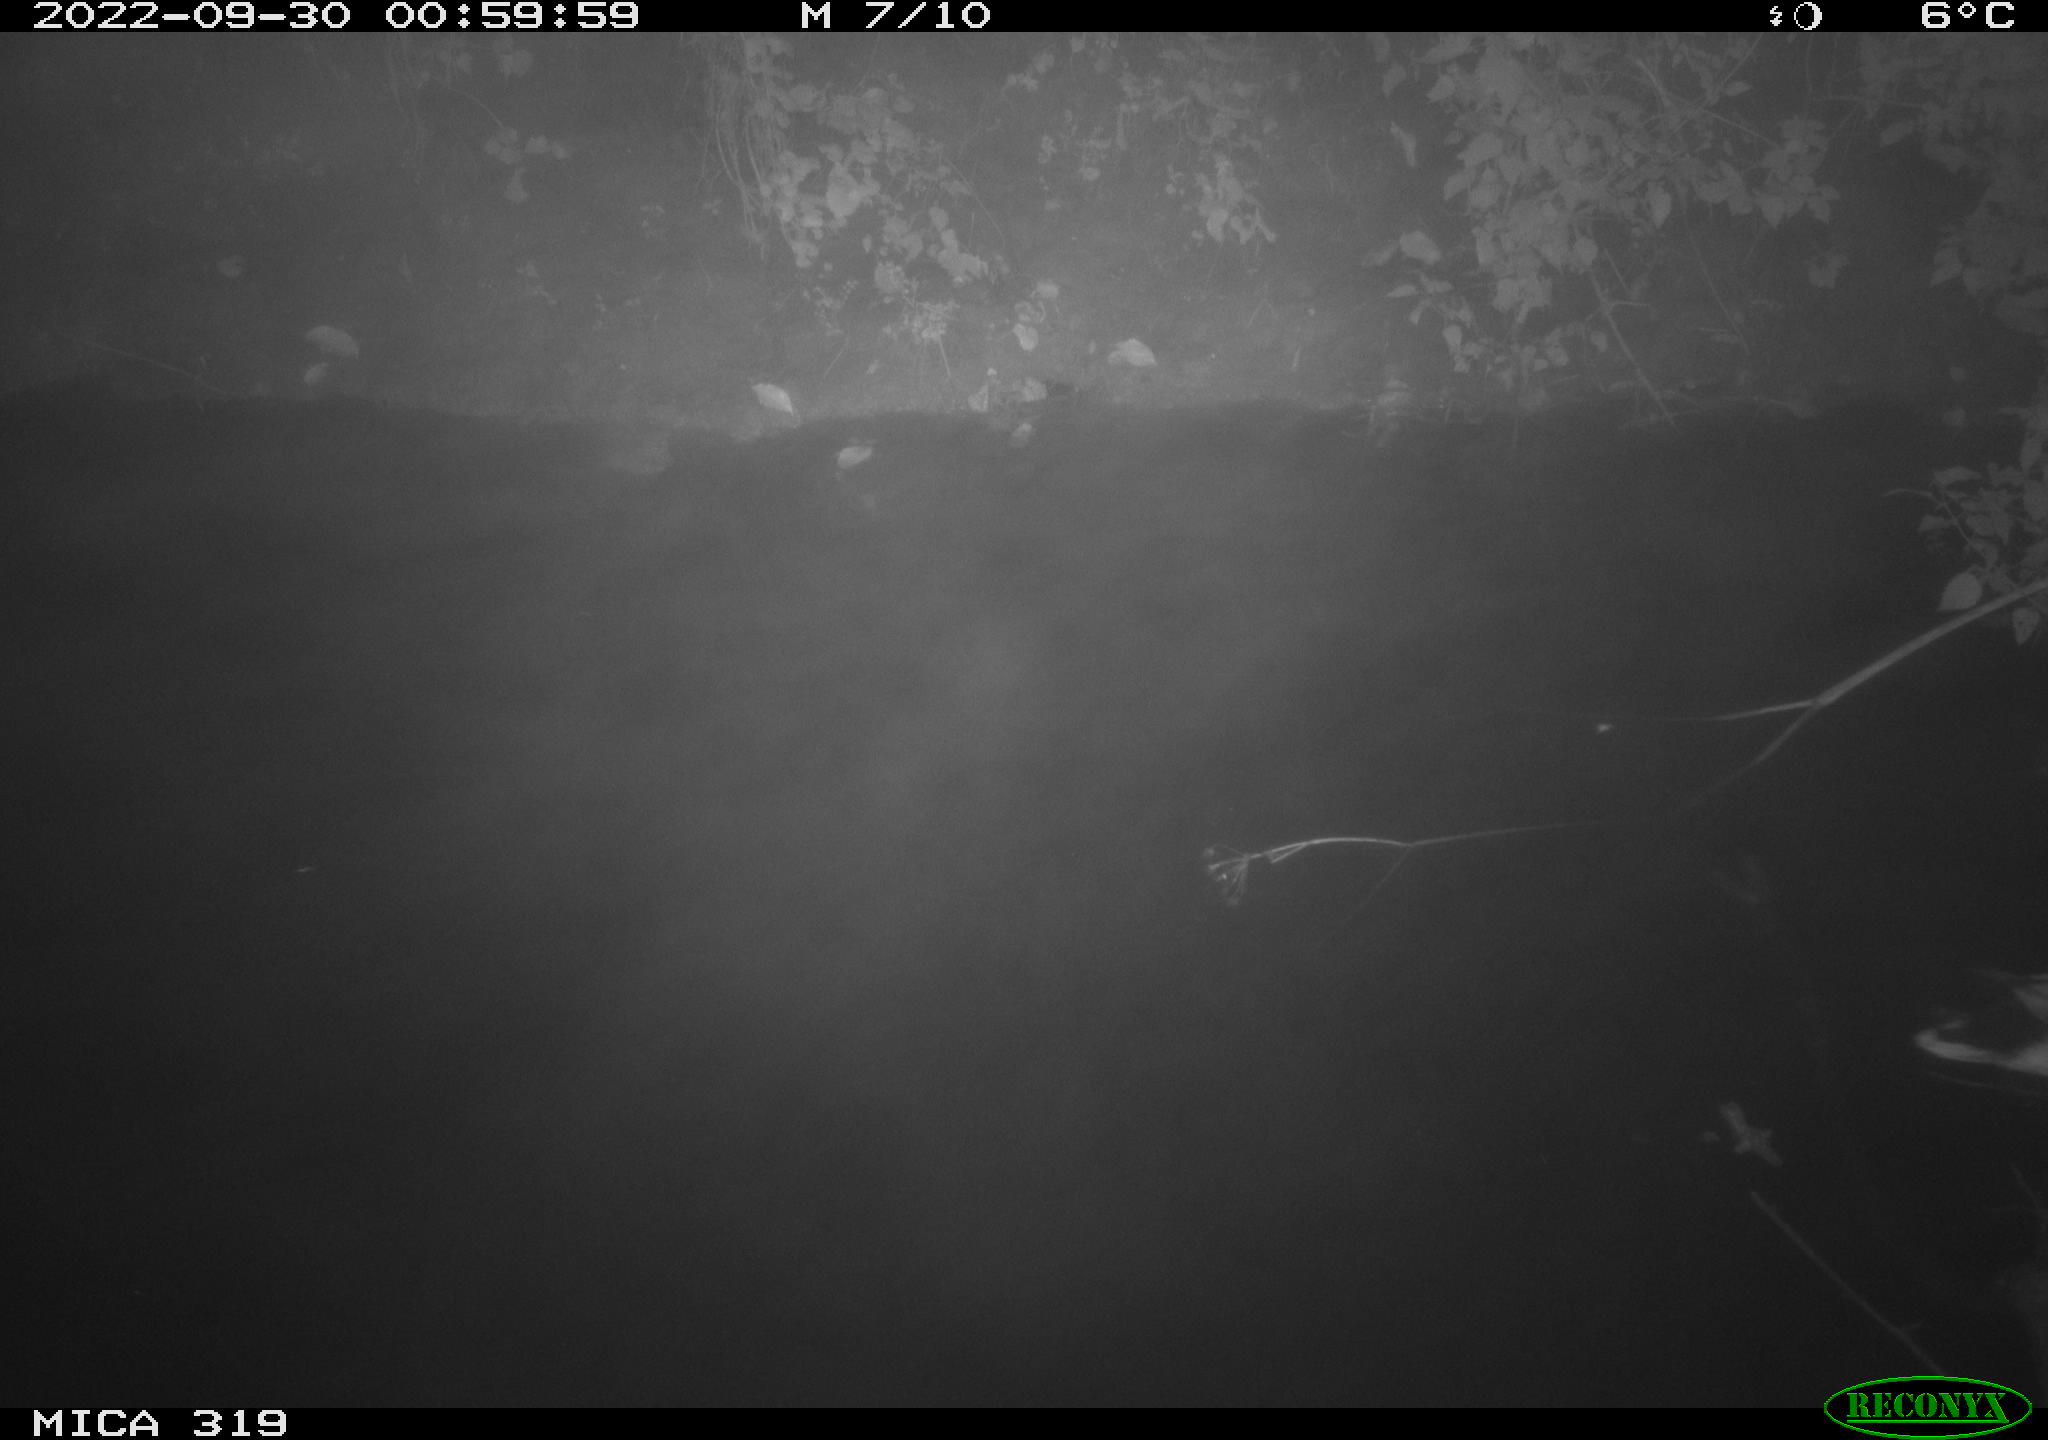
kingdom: Animalia
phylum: Chordata
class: Aves
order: Anseriformes
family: Anatidae
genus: Anas
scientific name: Anas
